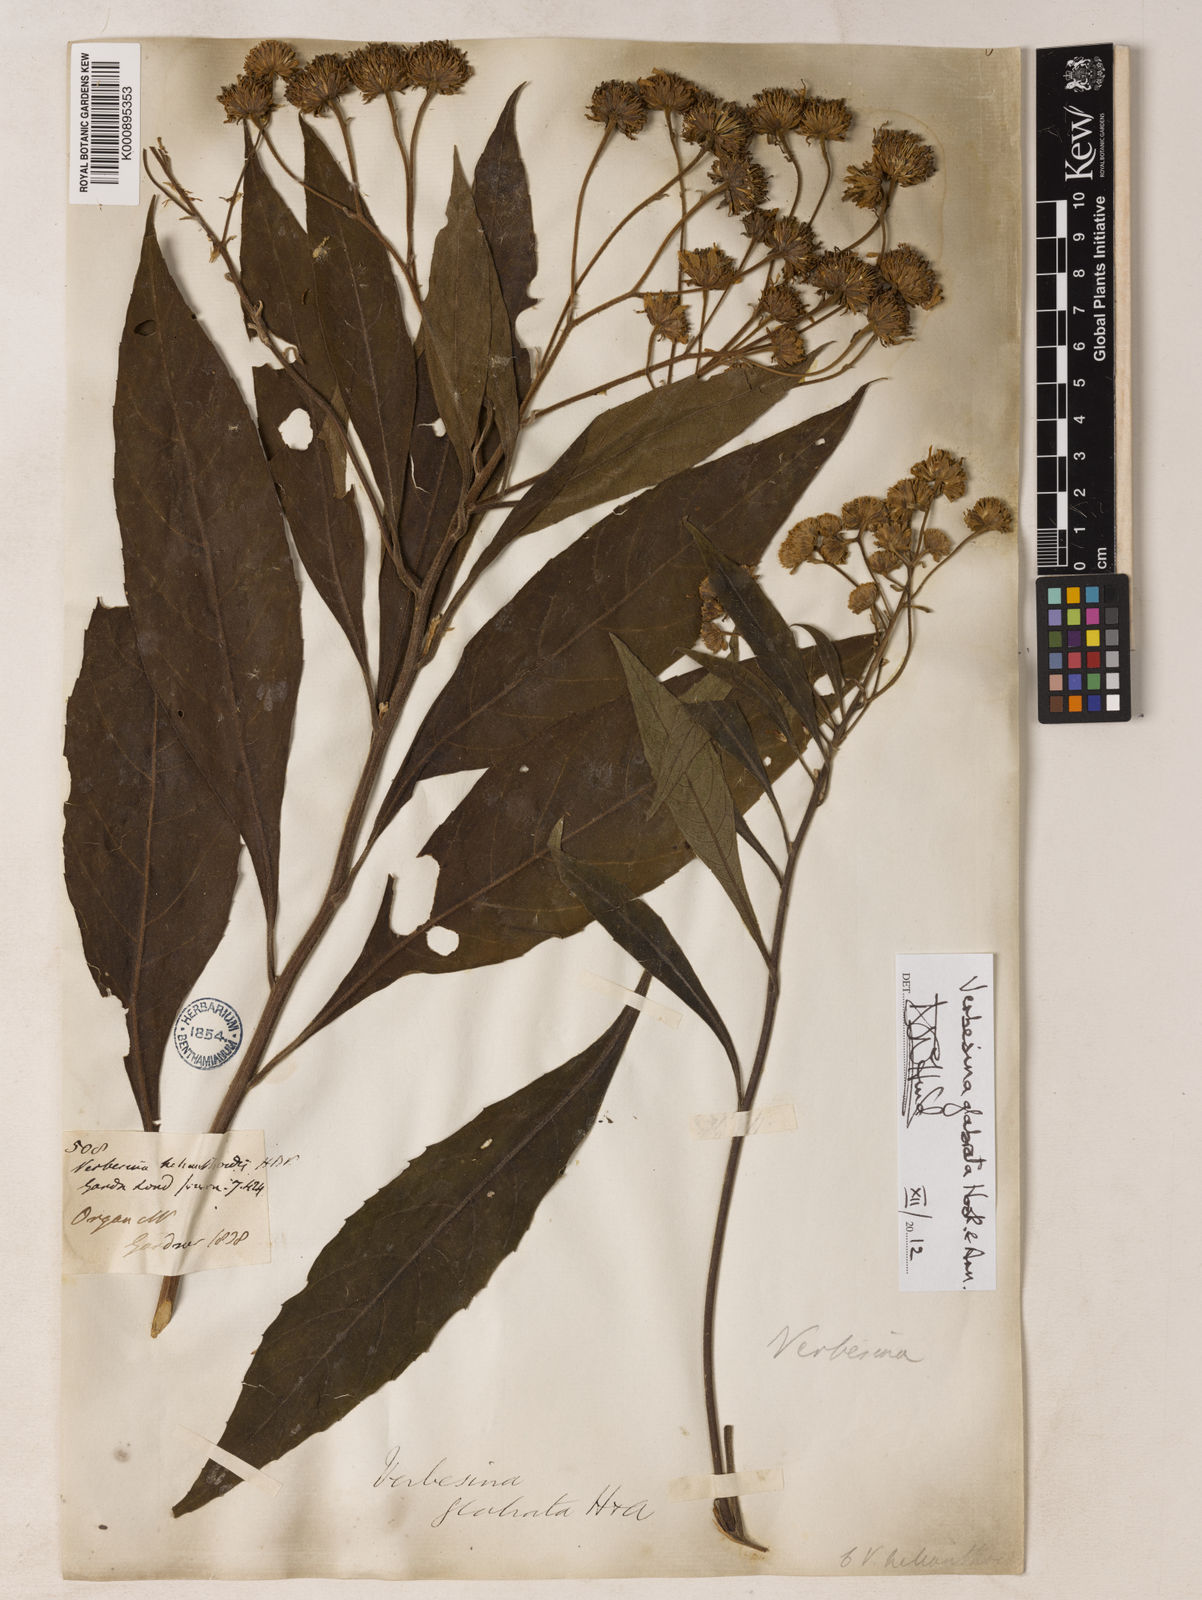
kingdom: Plantae
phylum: Tracheophyta
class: Magnoliopsida
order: Asterales
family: Asteraceae
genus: Verbesina
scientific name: Verbesina glabrata
